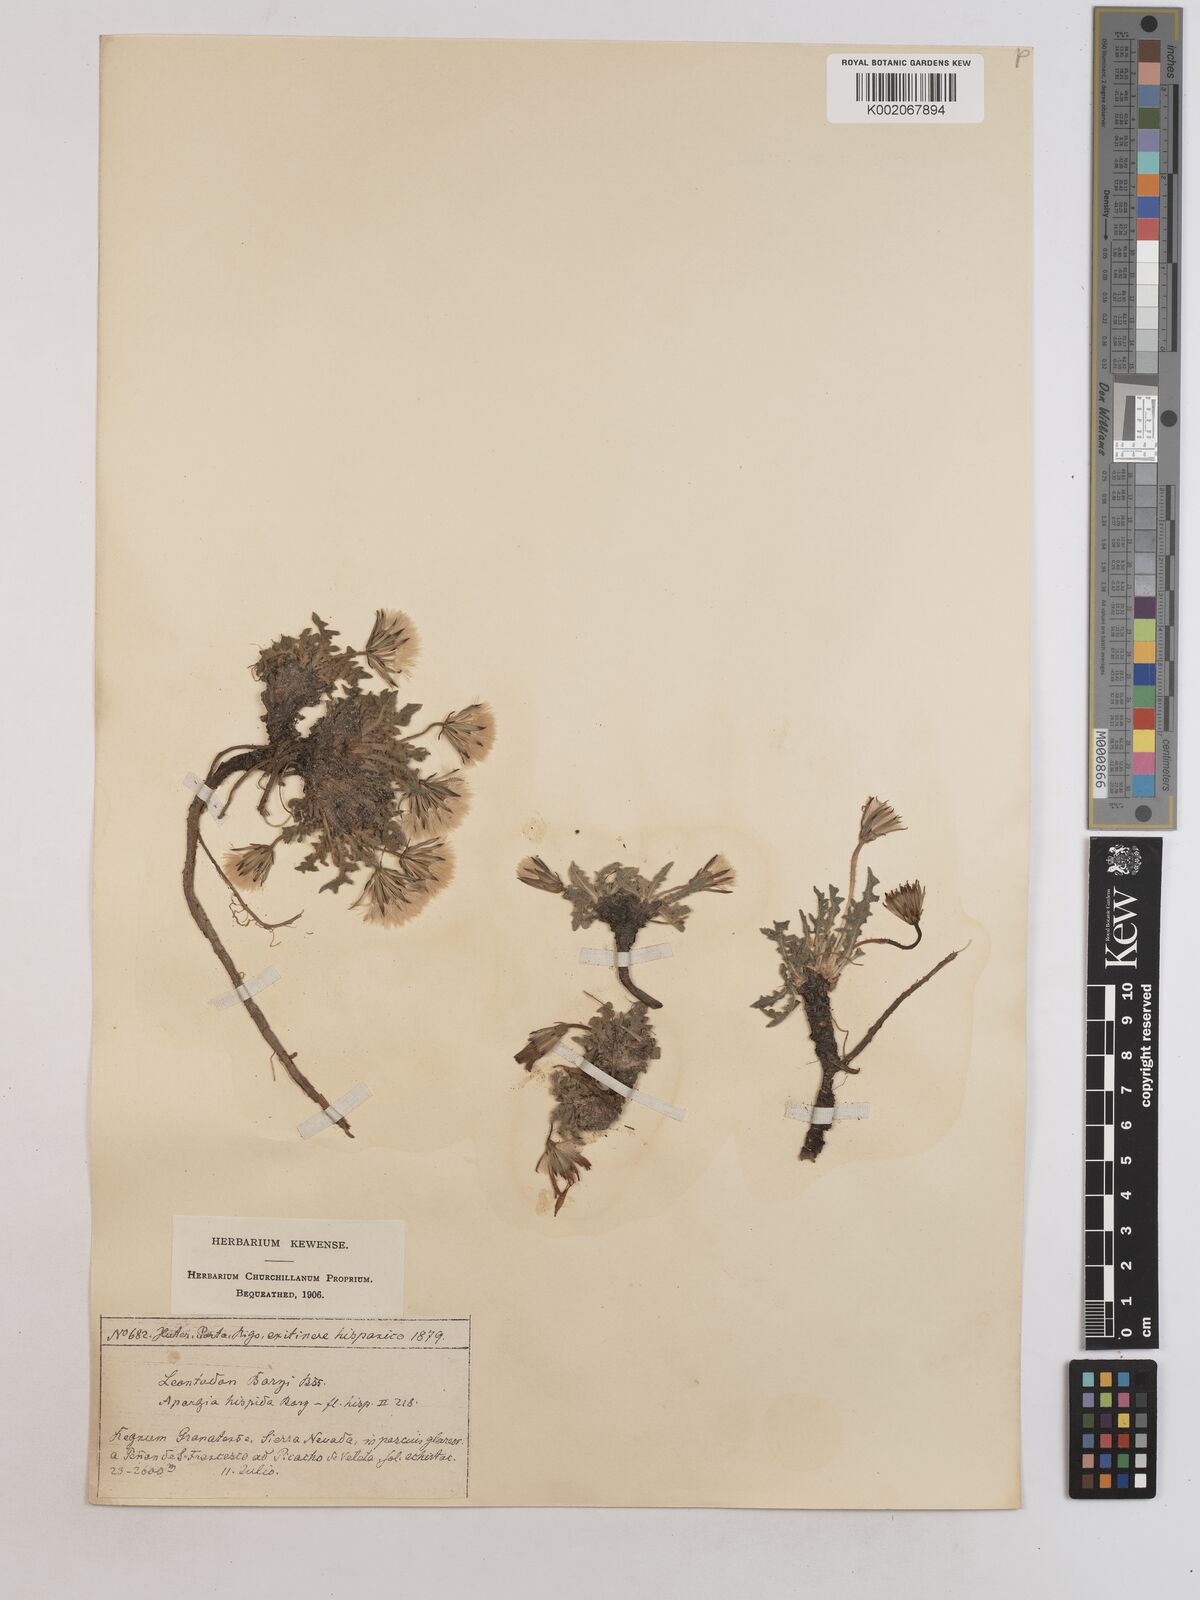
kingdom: Plantae
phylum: Tracheophyta
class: Magnoliopsida
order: Asterales
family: Asteraceae
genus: Leontodon
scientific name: Leontodon boryi
